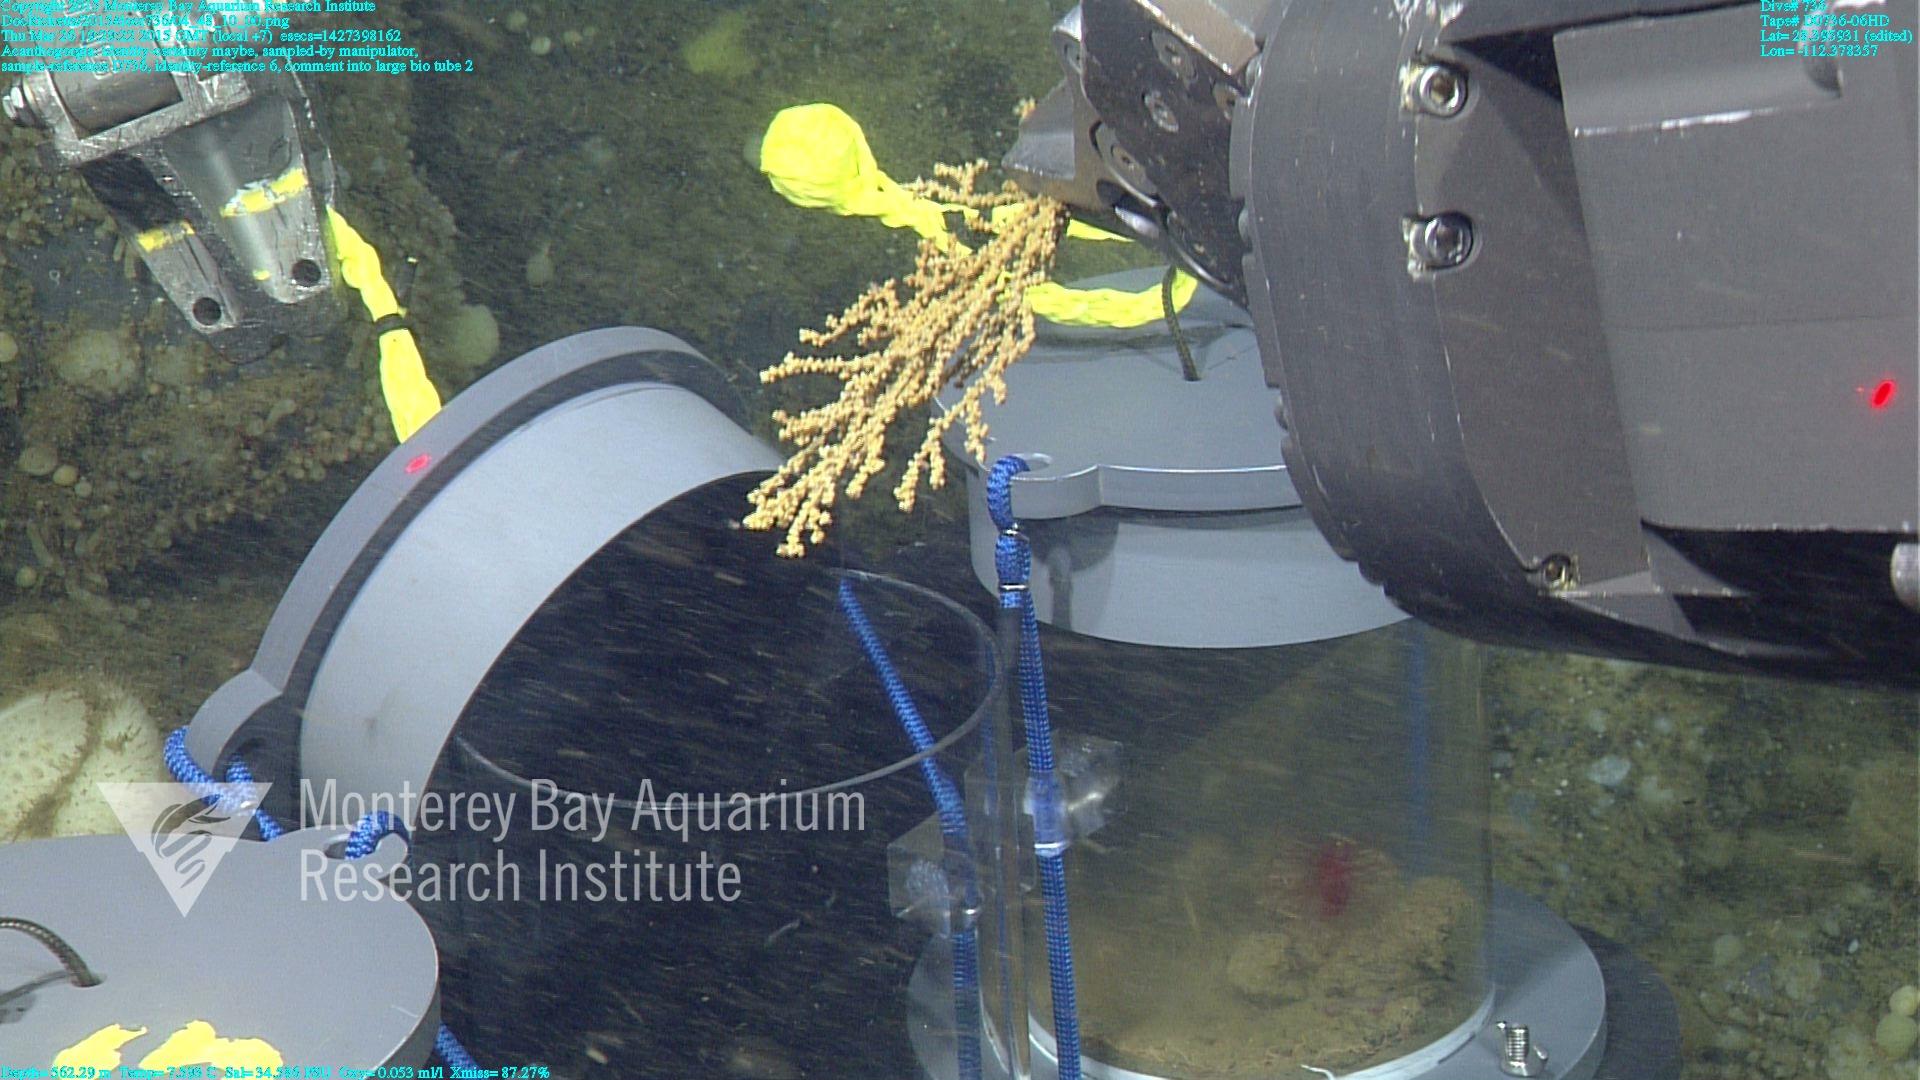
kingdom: Animalia
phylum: Cnidaria
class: Anthozoa
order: Malacalcyonacea
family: Paramuriceidae
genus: Acanthogorgia
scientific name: Acanthogorgia
